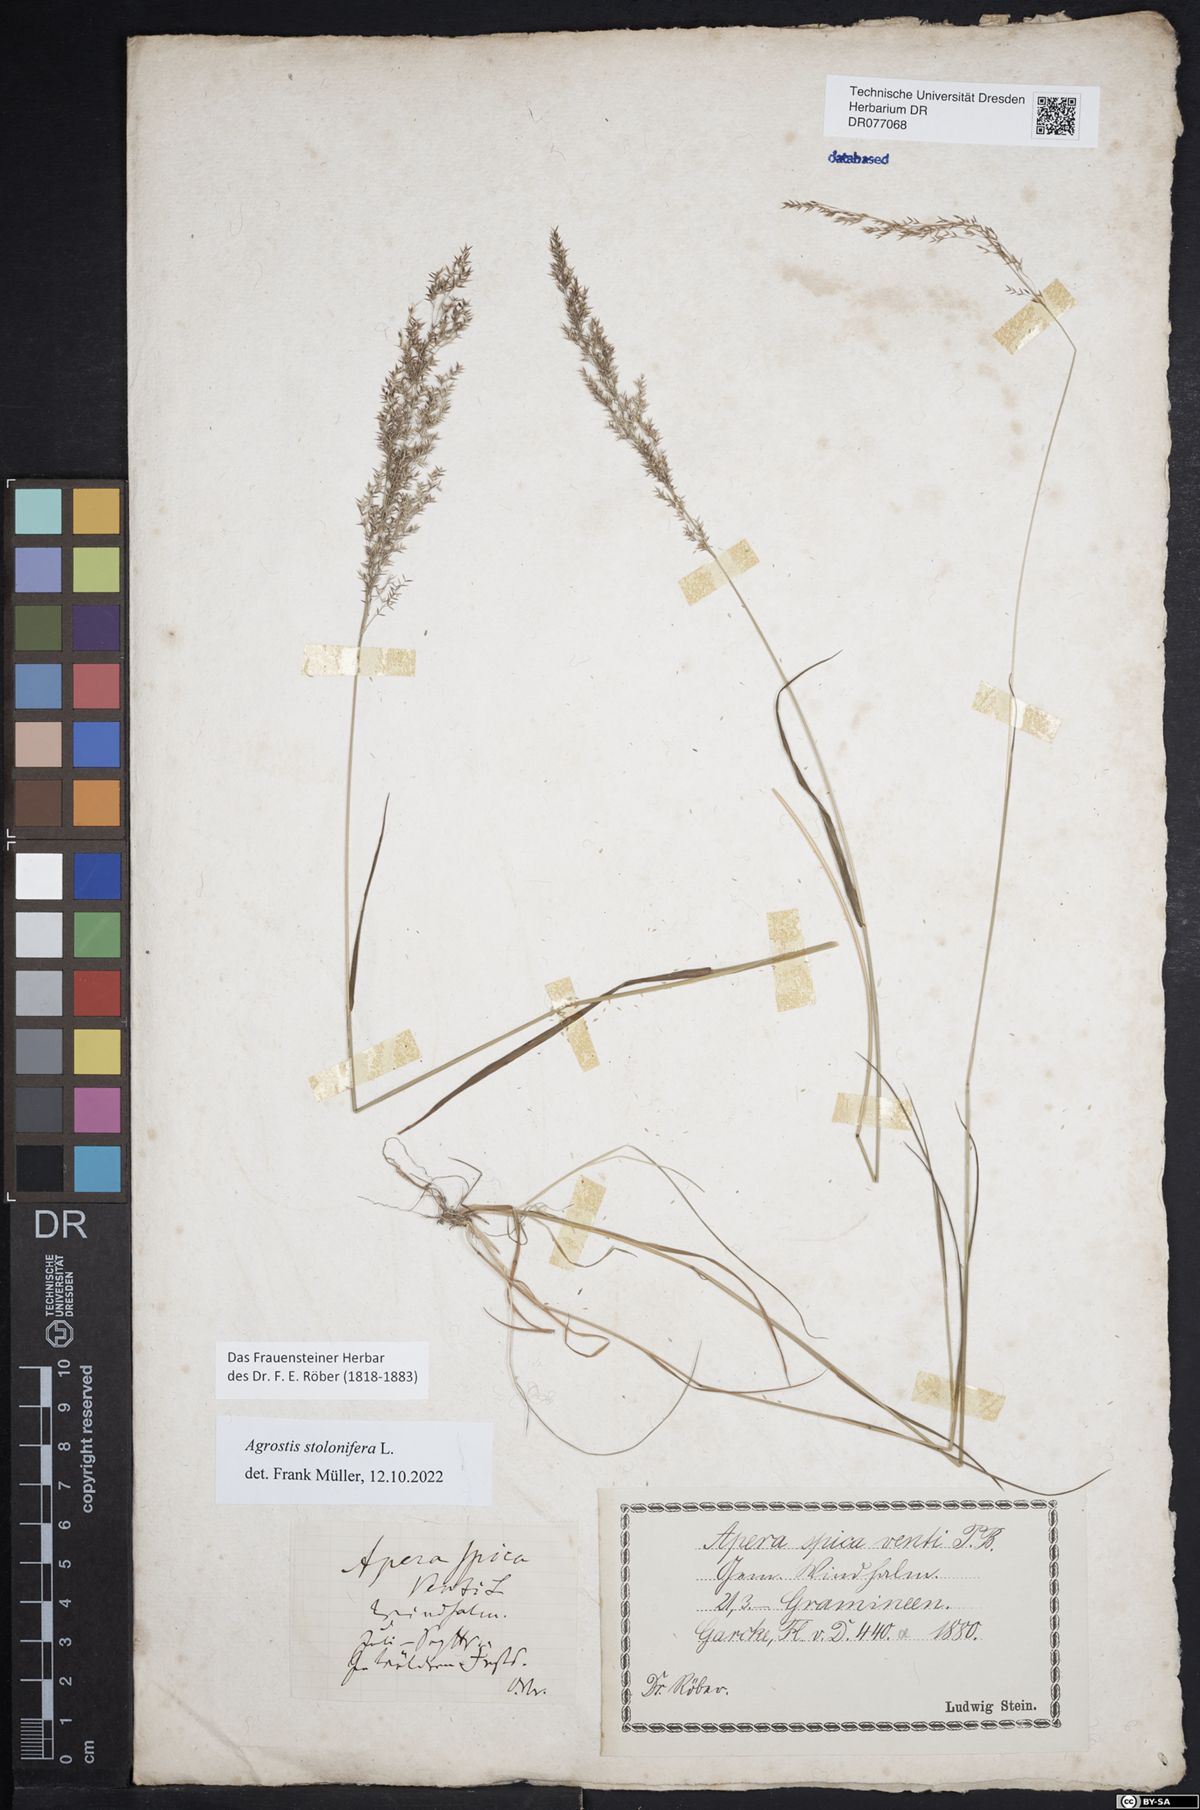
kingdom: Plantae
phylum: Tracheophyta
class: Liliopsida
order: Poales
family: Poaceae
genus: Agrostis
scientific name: Agrostis stolonifera
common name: Creeping bentgrass
